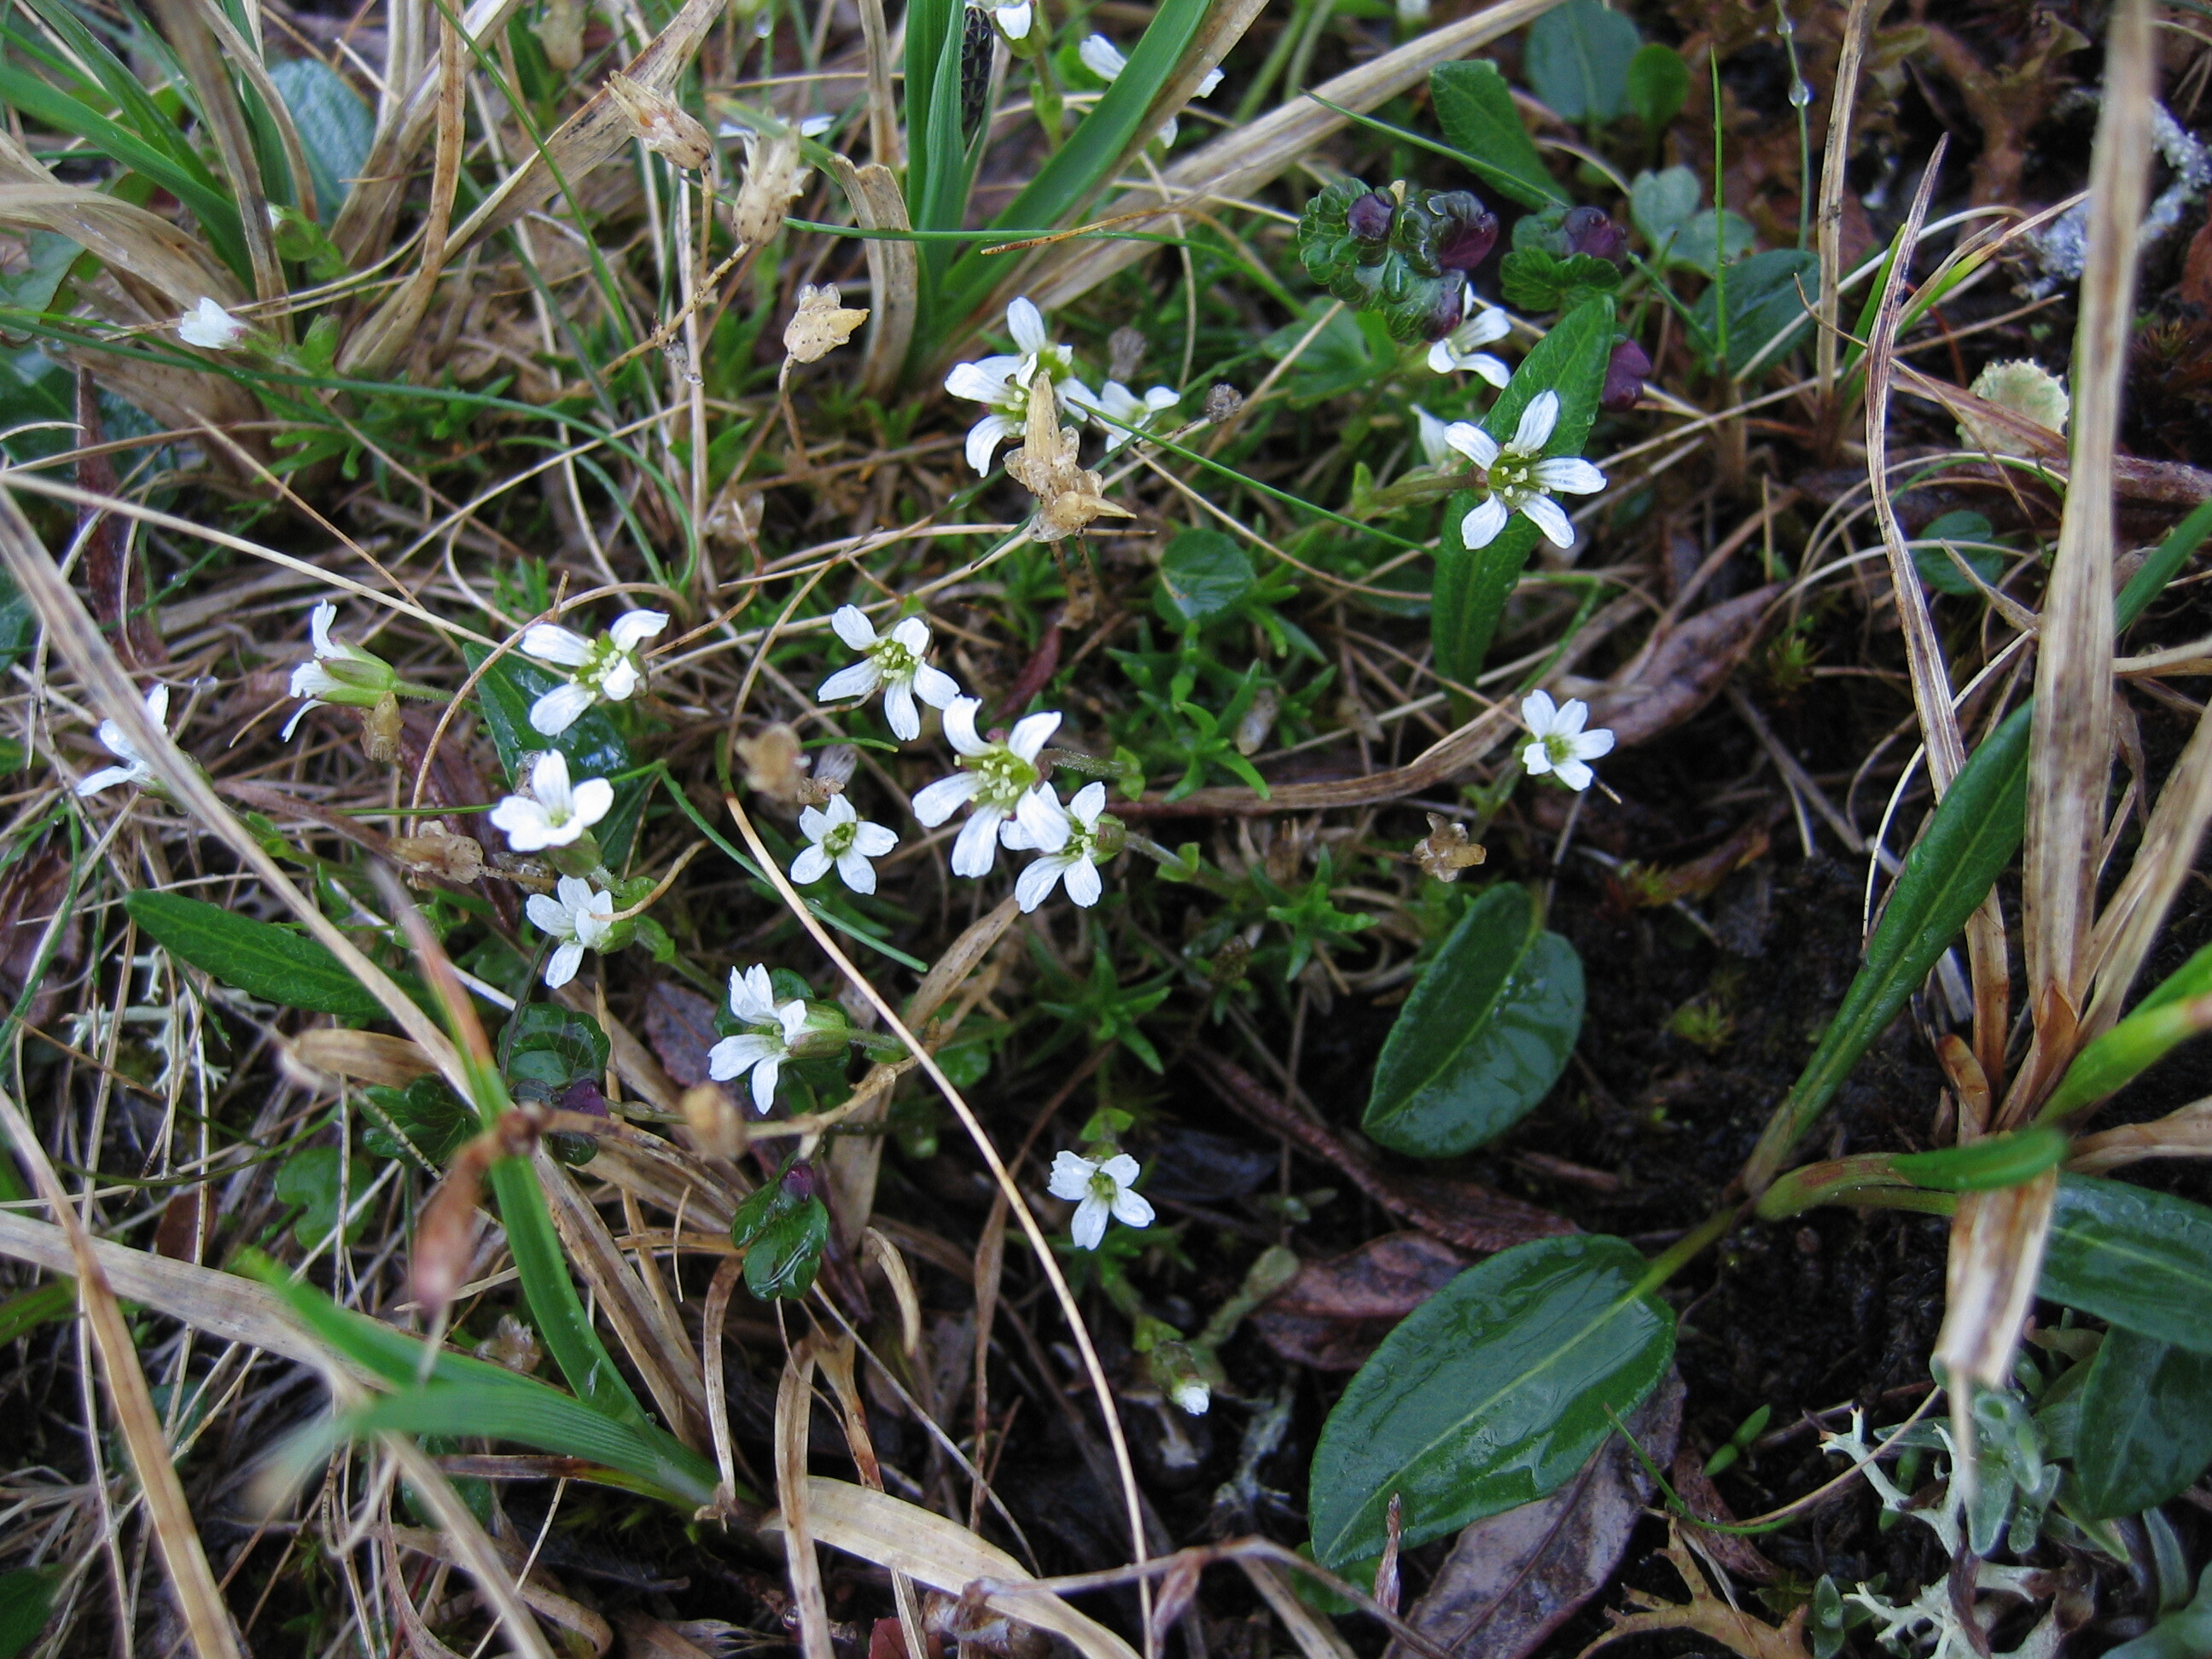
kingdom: Plantae
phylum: Tracheophyta
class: Magnoliopsida
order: Caryophyllales
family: Caryophyllaceae
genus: Cherleria
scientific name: Cherleria biflora
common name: Mountain sandwort
